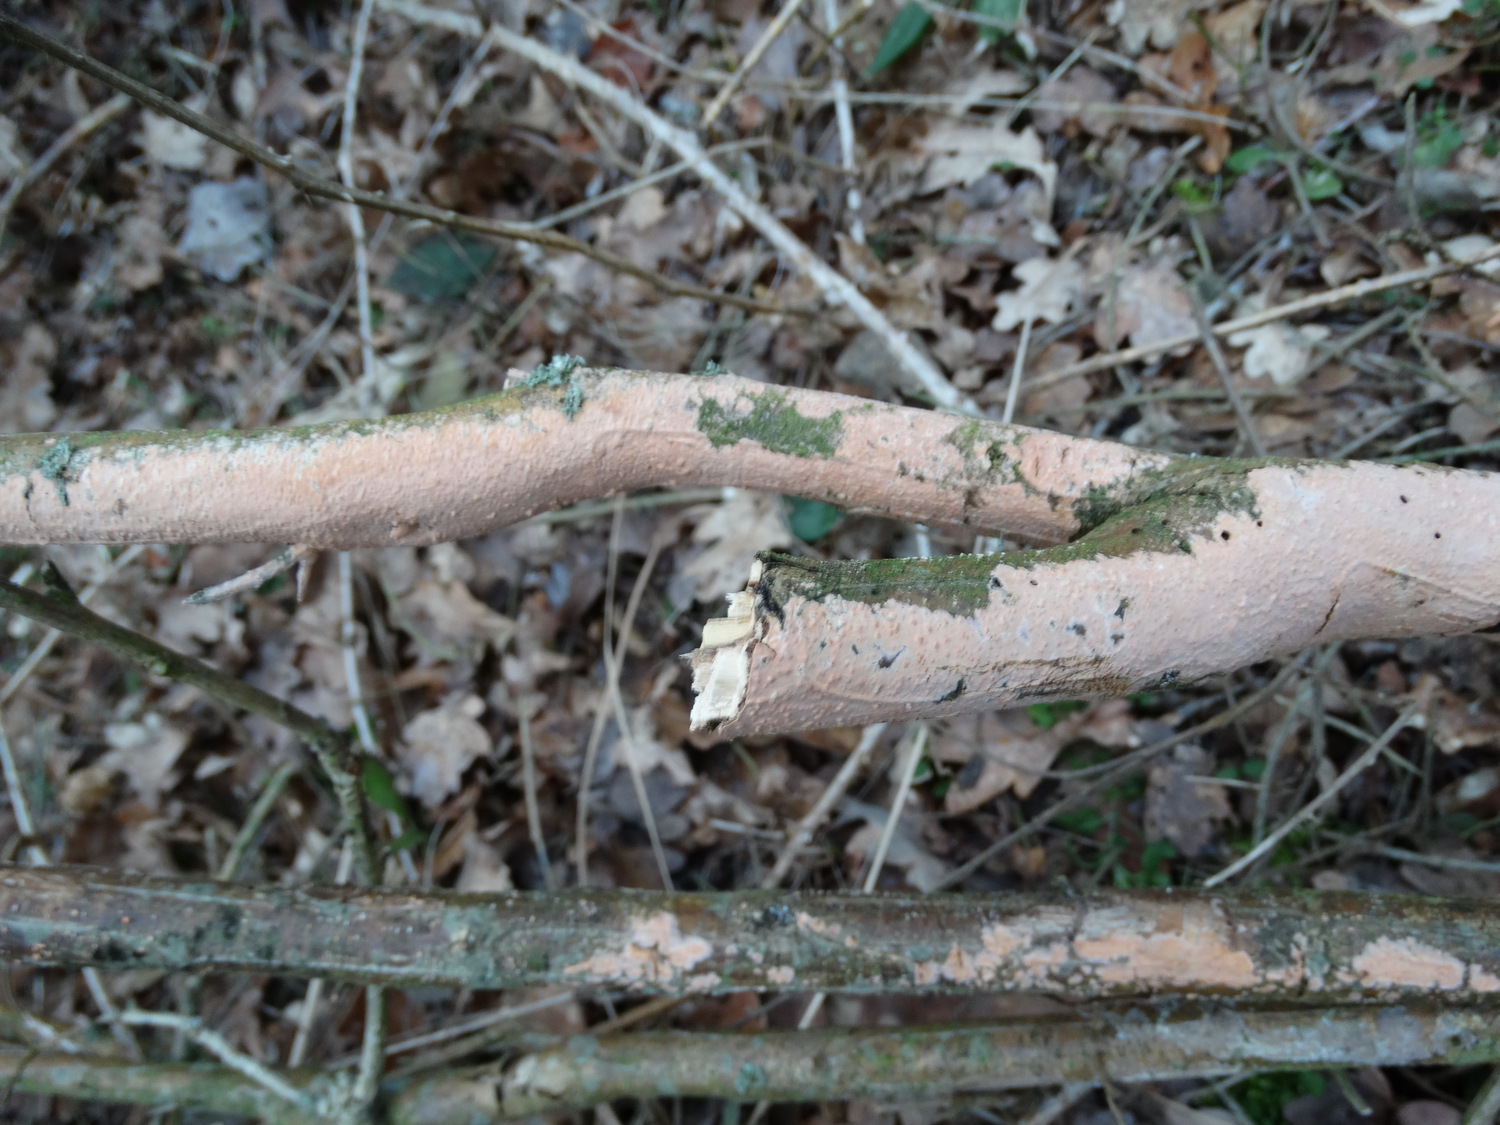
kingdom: Fungi
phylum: Basidiomycota
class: Agaricomycetes
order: Russulales
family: Peniophoraceae
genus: Peniophora
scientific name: Peniophora incarnata
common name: laksefarvet voksskind
